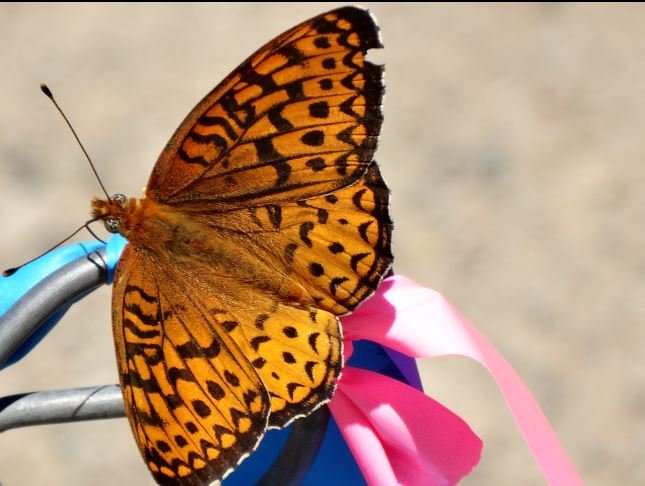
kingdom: Animalia
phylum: Arthropoda
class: Insecta
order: Lepidoptera
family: Nymphalidae
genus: Speyeria
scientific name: Speyeria atlantis
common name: Atlantis Fritillary
